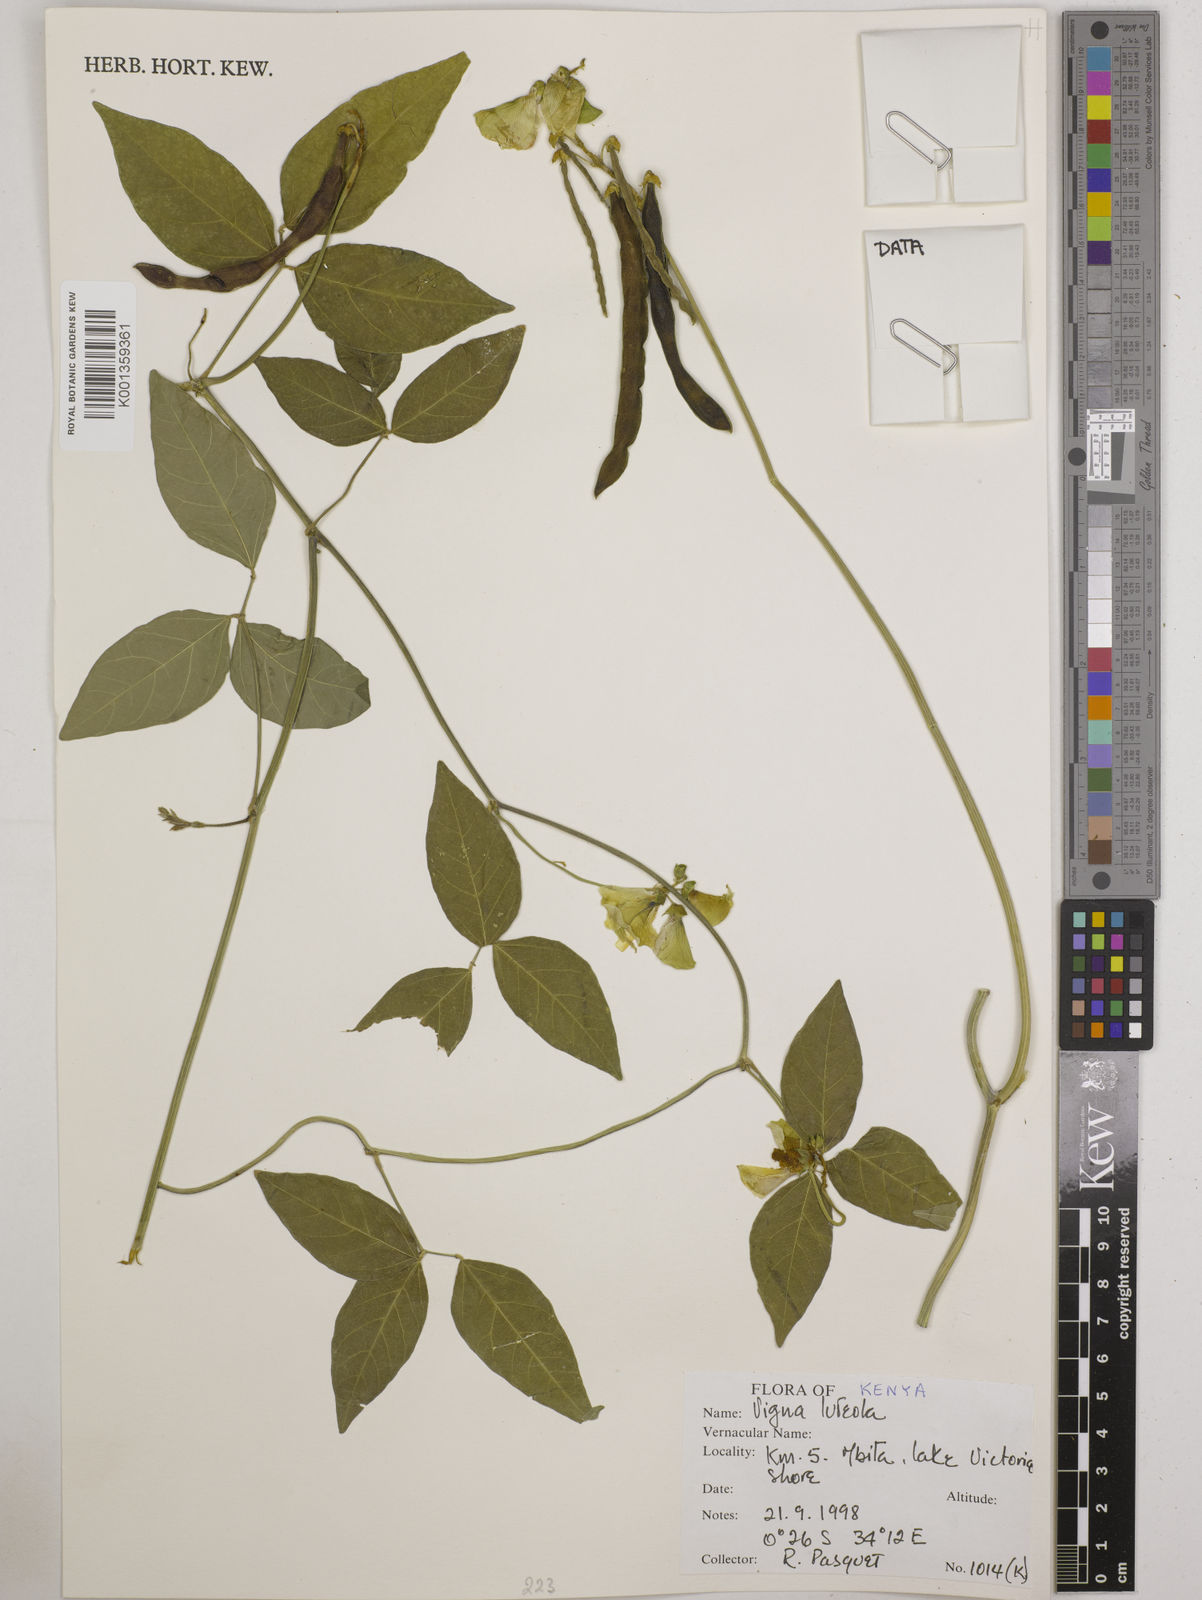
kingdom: Plantae
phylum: Tracheophyta
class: Magnoliopsida
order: Fabales
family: Fabaceae
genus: Vigna
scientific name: Vigna luteola
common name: Hairypod cowpea
